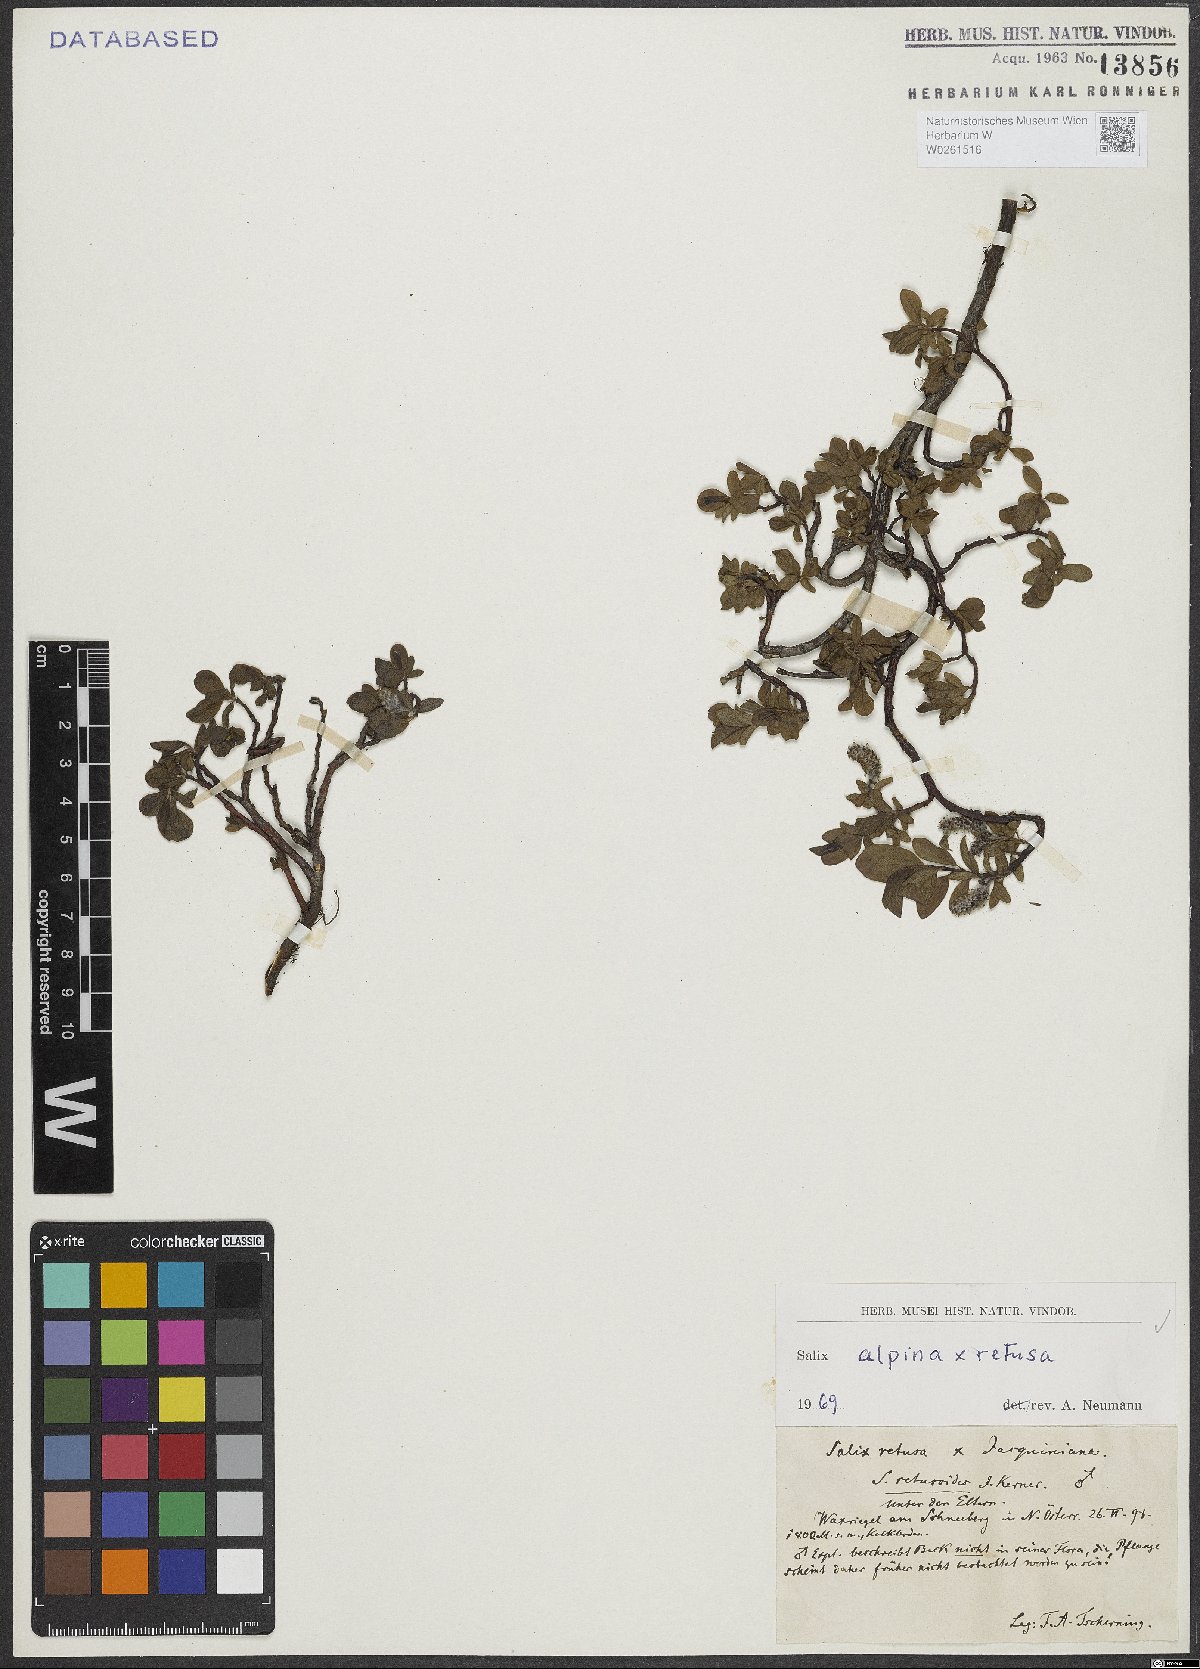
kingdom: Plantae
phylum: Tracheophyta
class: Magnoliopsida
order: Malpighiales
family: Salicaceae
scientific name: Salicaceae
